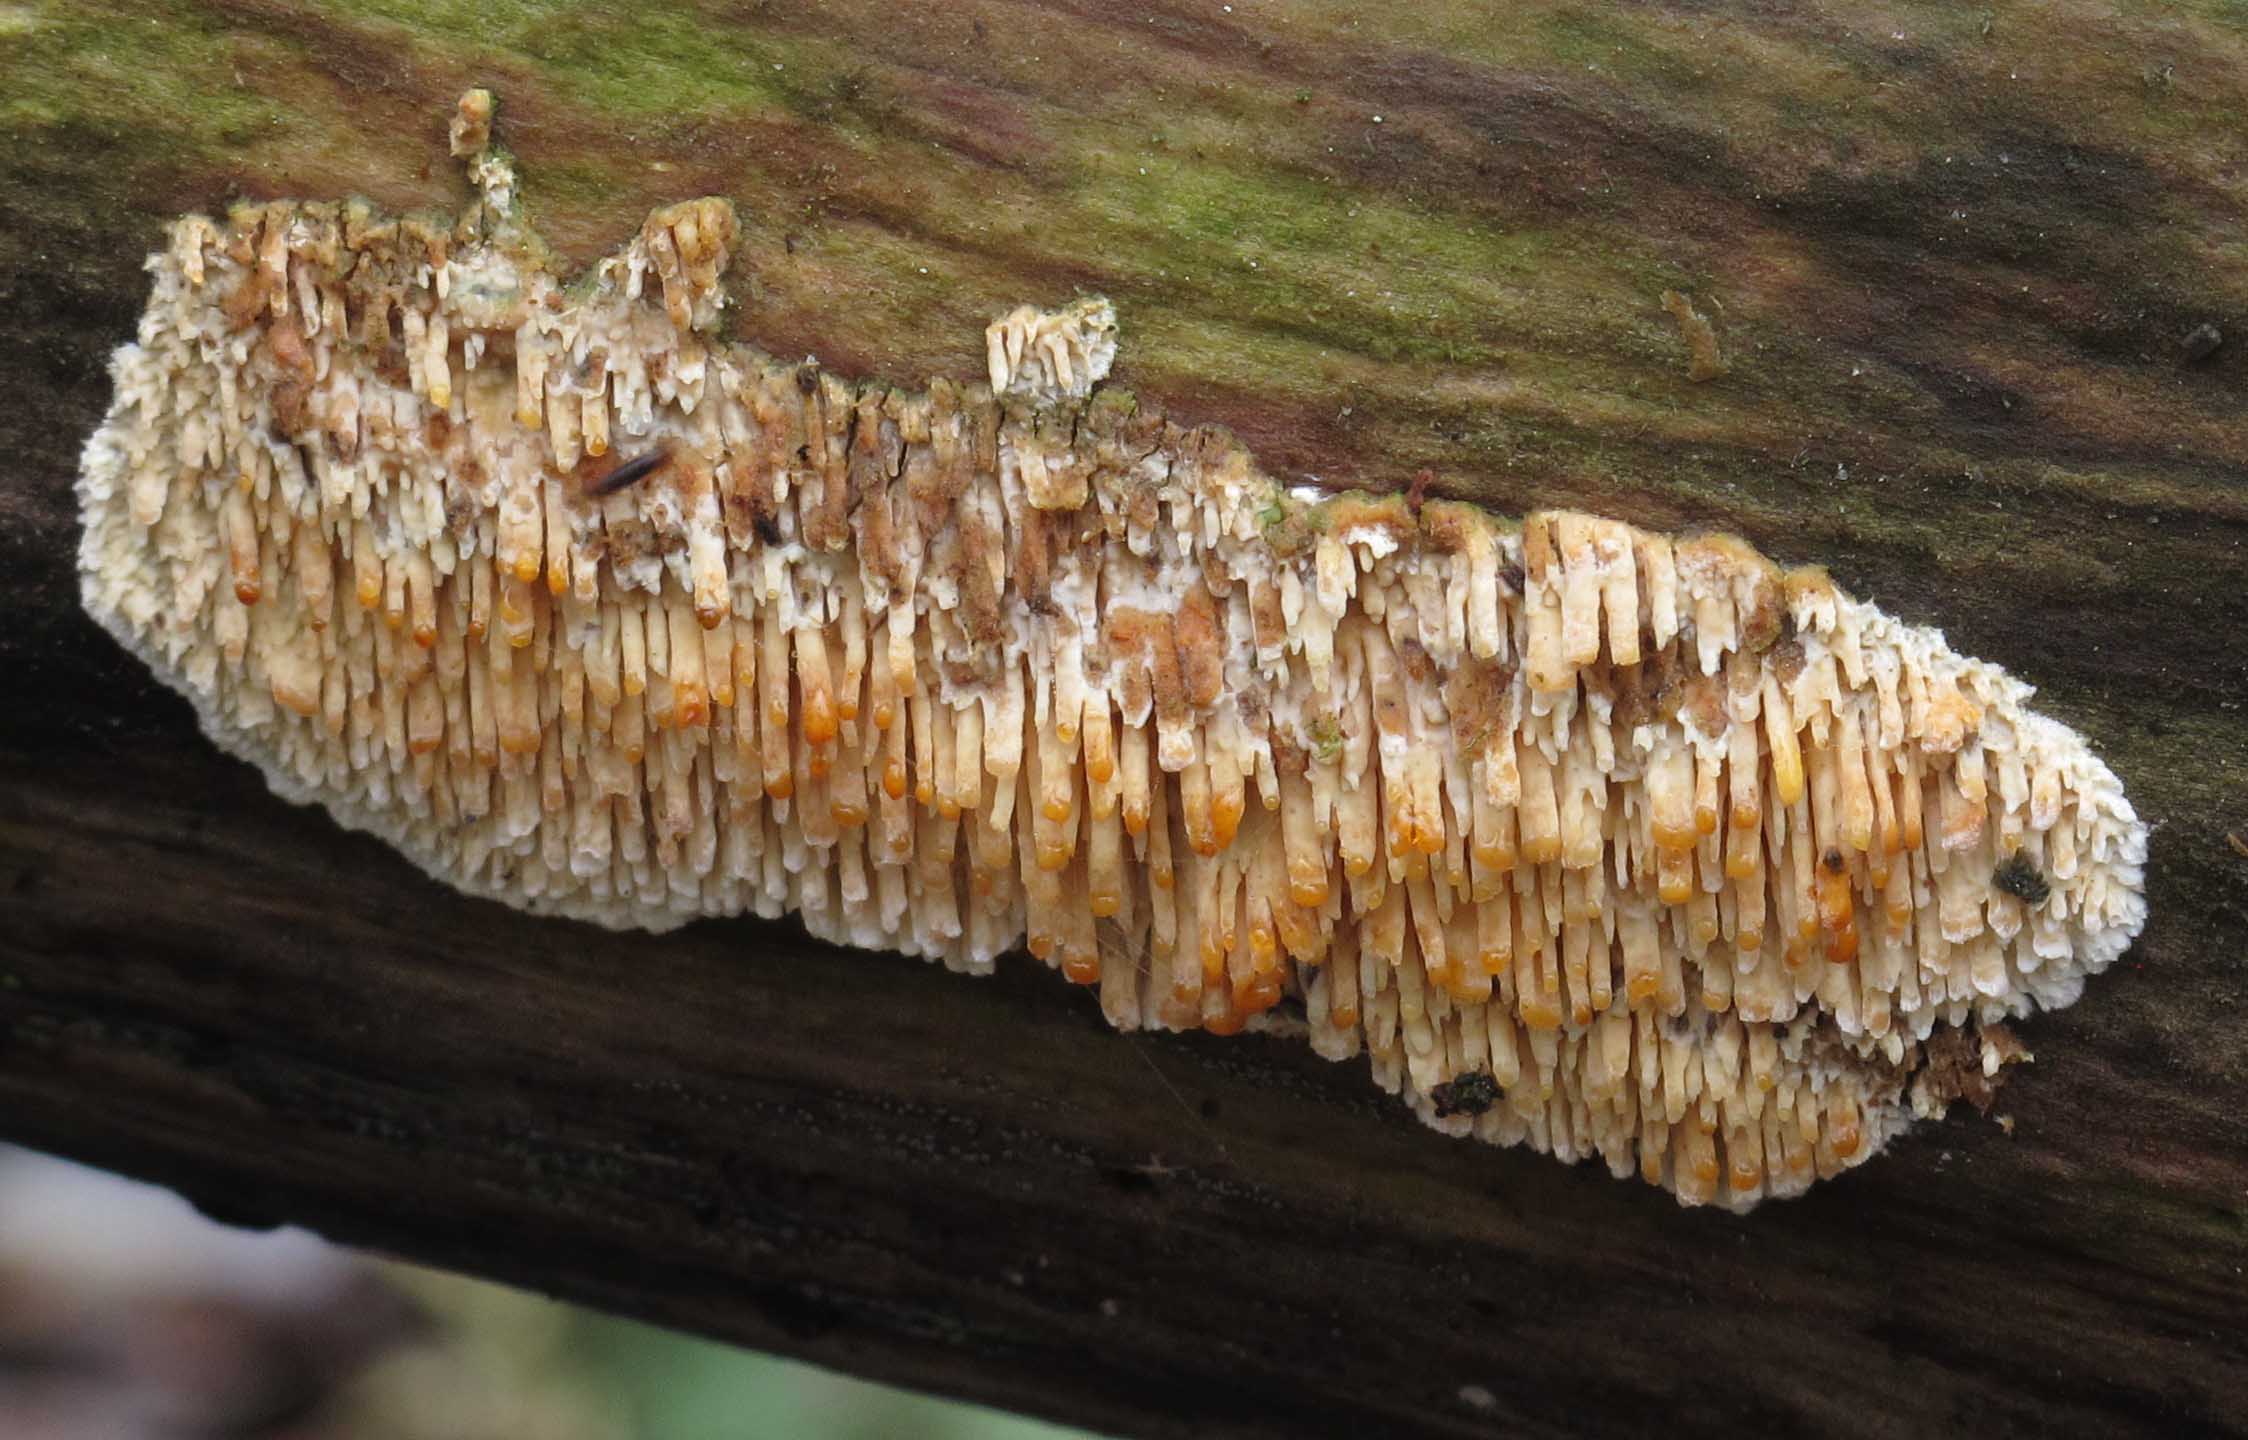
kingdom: Fungi
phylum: Basidiomycota
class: Agaricomycetes
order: Hymenochaetales
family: Schizoporaceae
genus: Xylodon
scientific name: Xylodon radula
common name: grovtandet kalkskind
